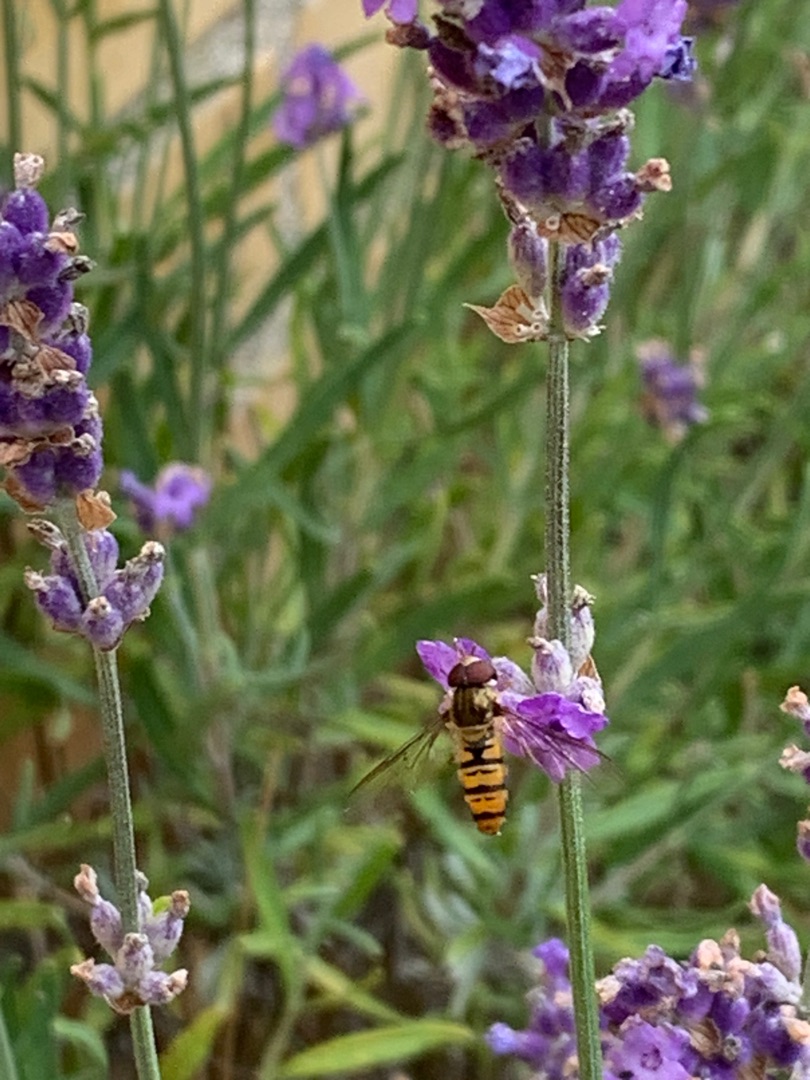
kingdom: Animalia
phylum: Arthropoda
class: Insecta
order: Diptera
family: Syrphidae
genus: Episyrphus
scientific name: Episyrphus balteatus
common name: Dobbeltbåndet svirreflue
